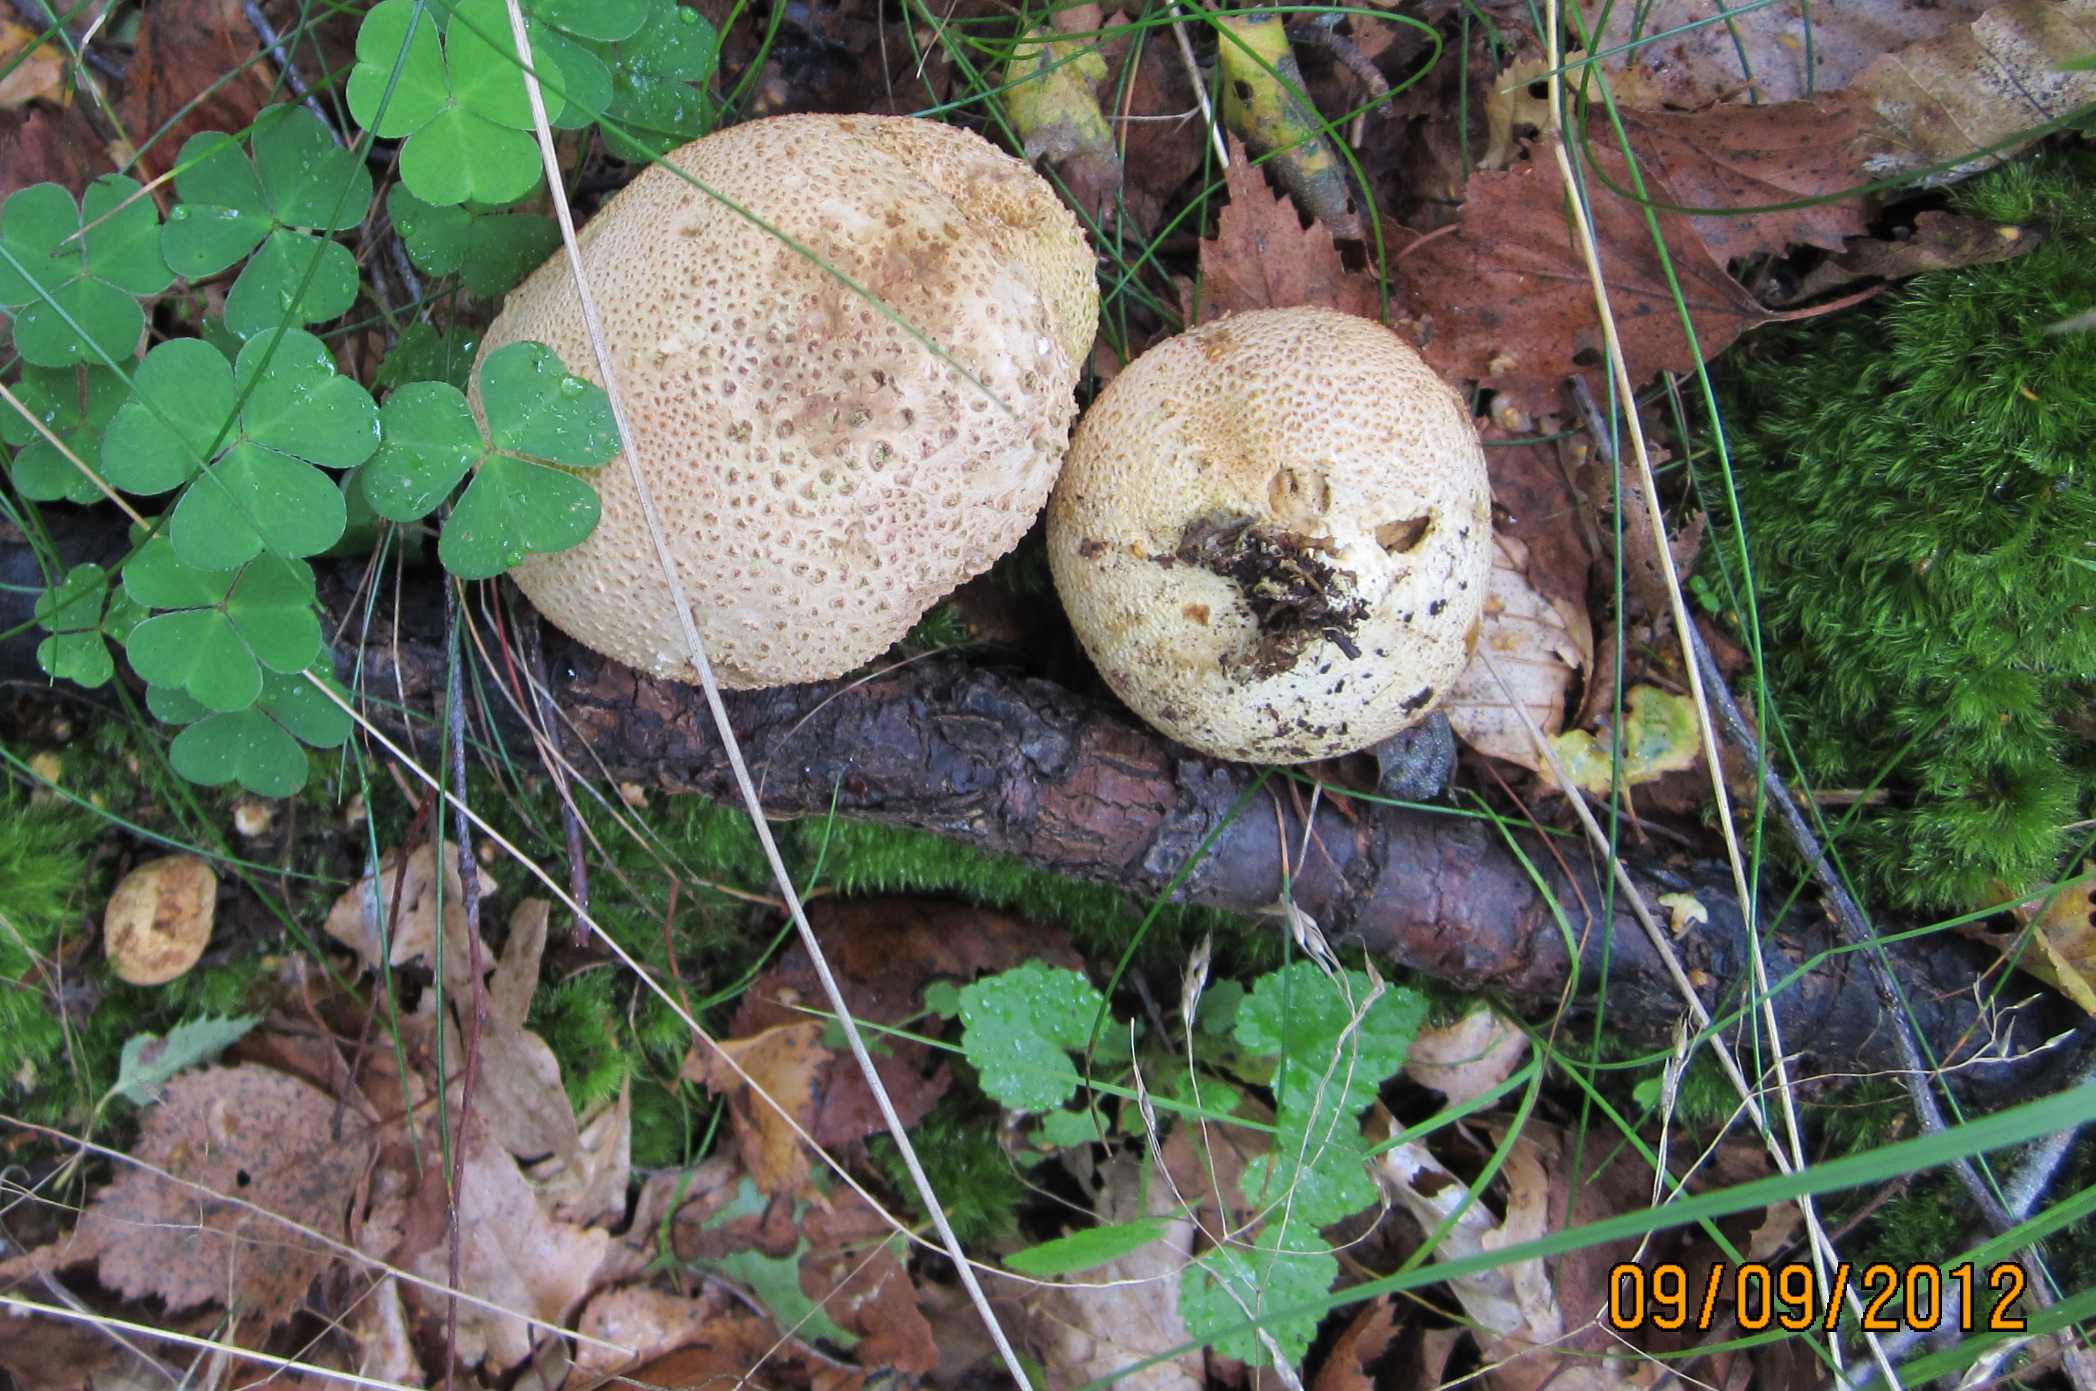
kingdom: Fungi
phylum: Basidiomycota
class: Agaricomycetes
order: Boletales
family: Sclerodermataceae
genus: Scleroderma
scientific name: Scleroderma citrinum
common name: almindelig bruskbold
